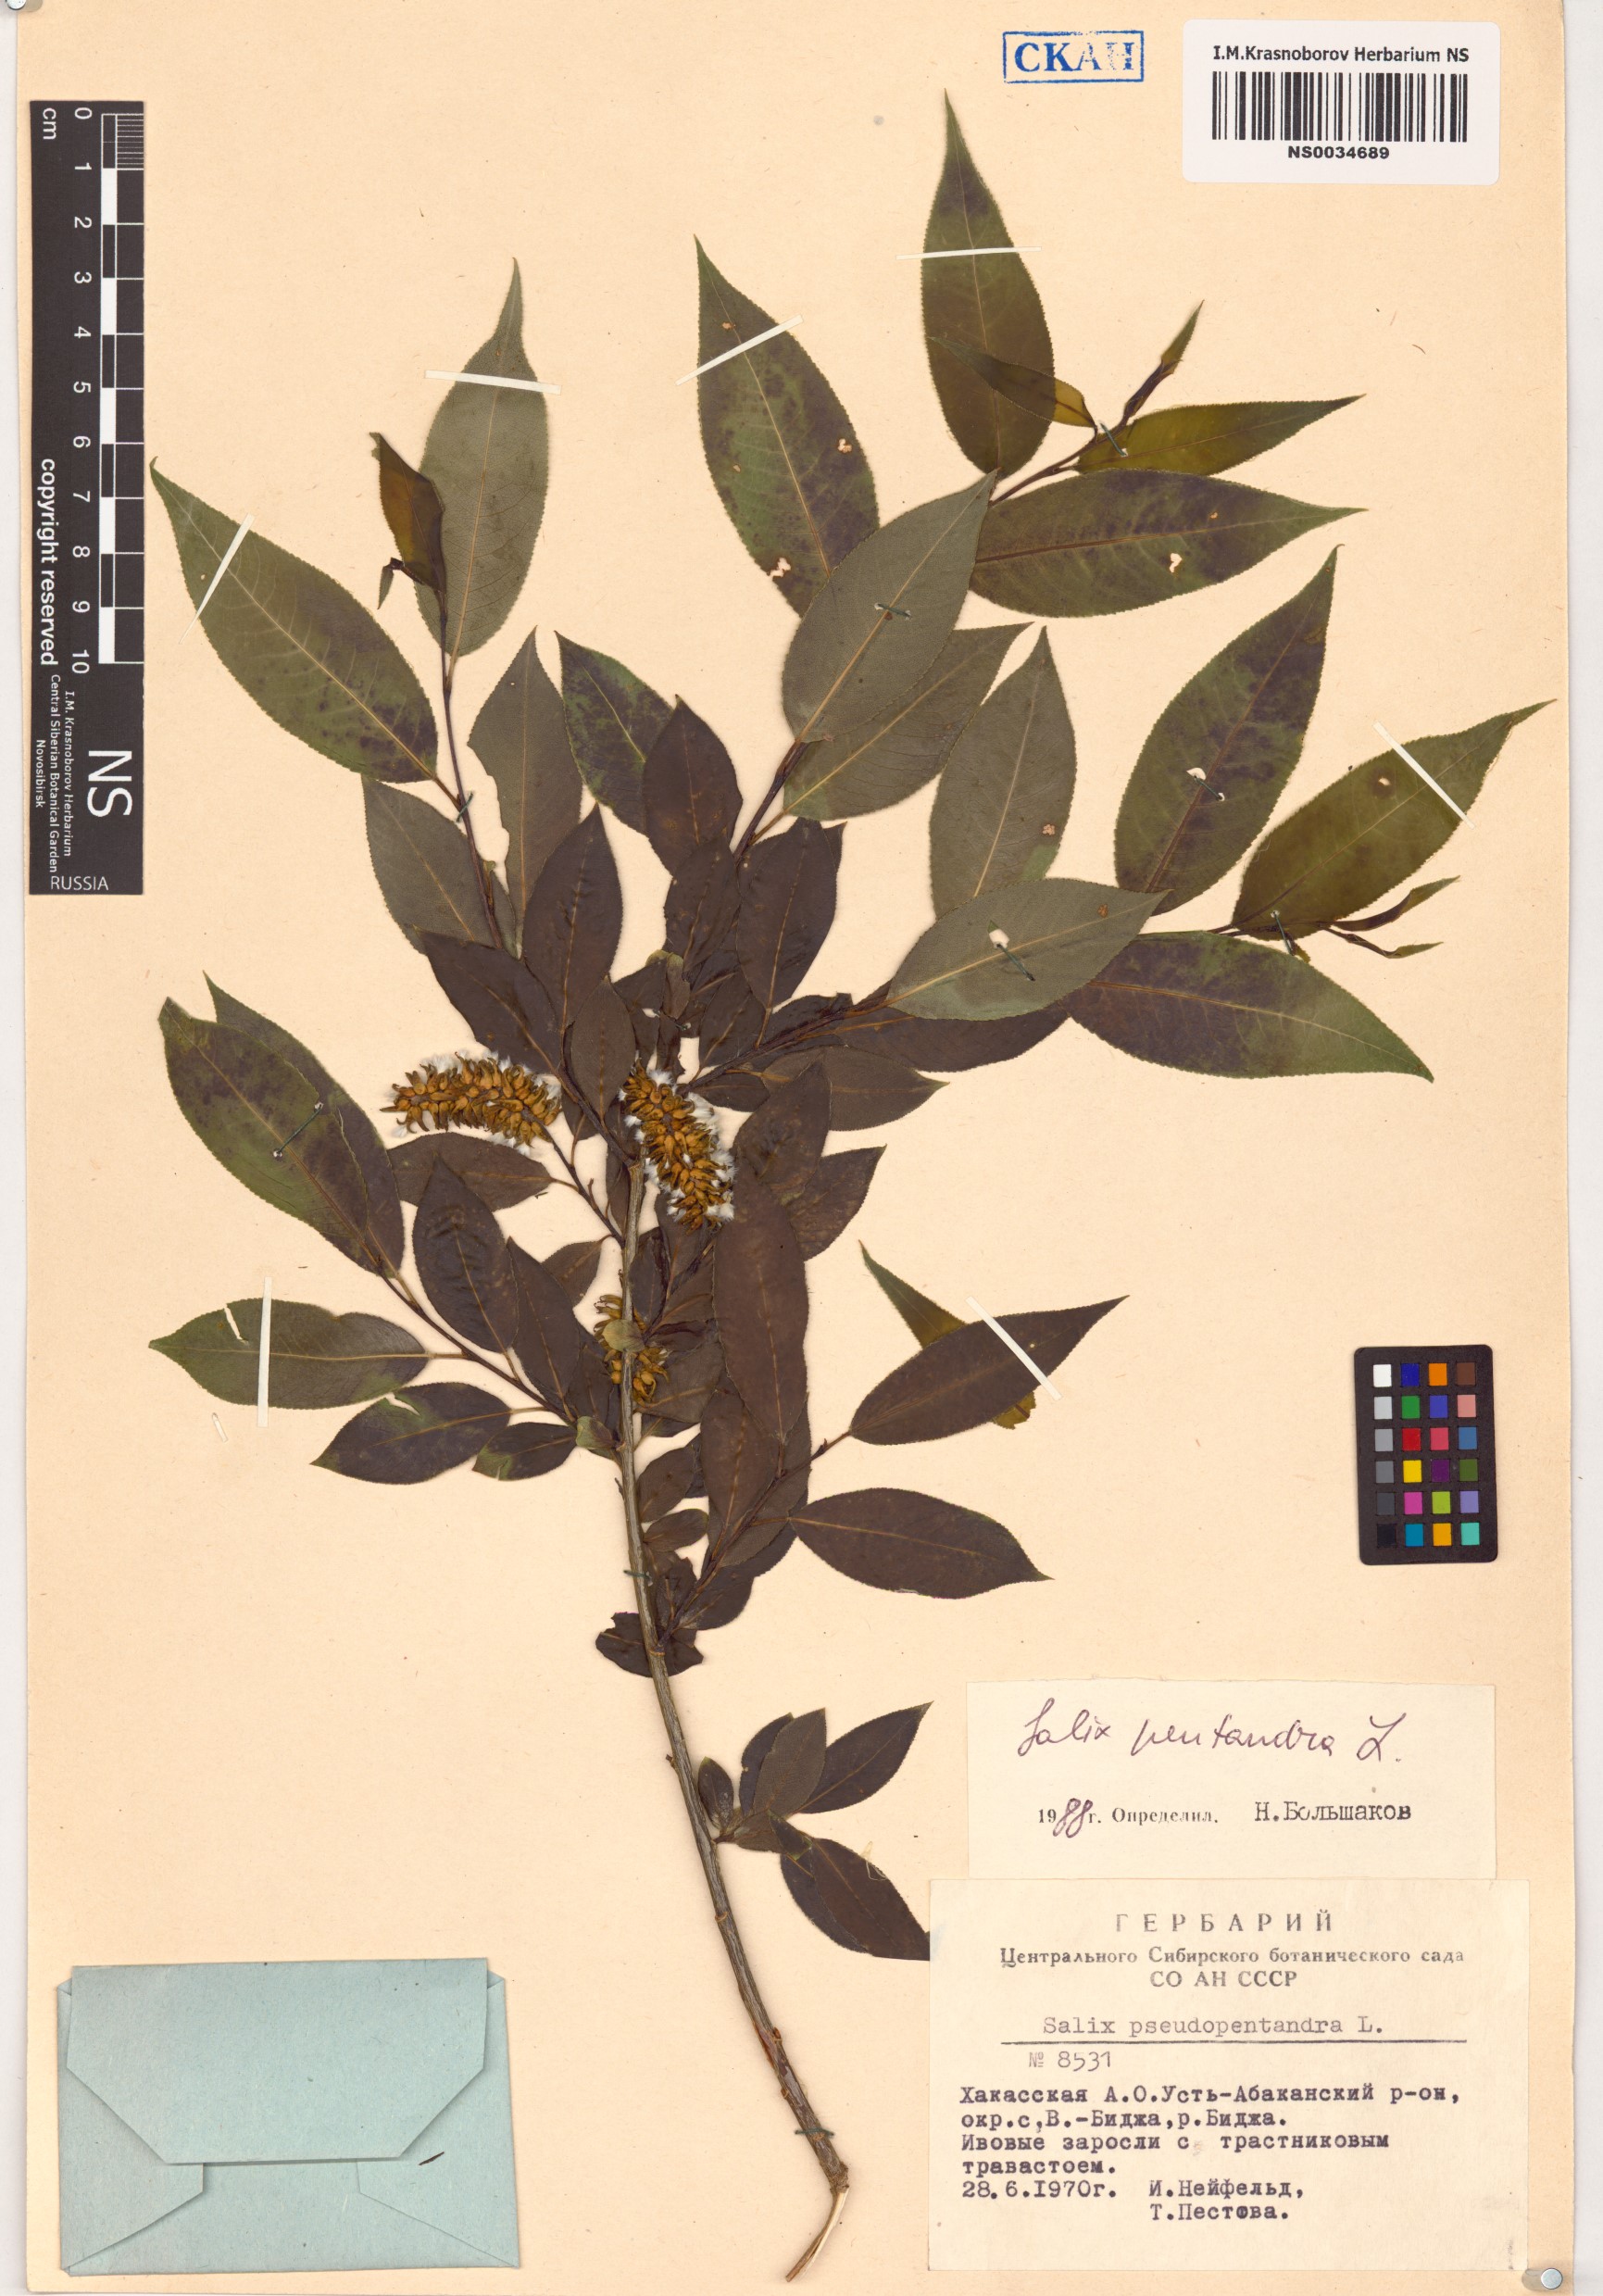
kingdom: Plantae
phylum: Tracheophyta
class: Magnoliopsida
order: Malpighiales
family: Salicaceae
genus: Salix
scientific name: Salix pentandra
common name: Bay willow
